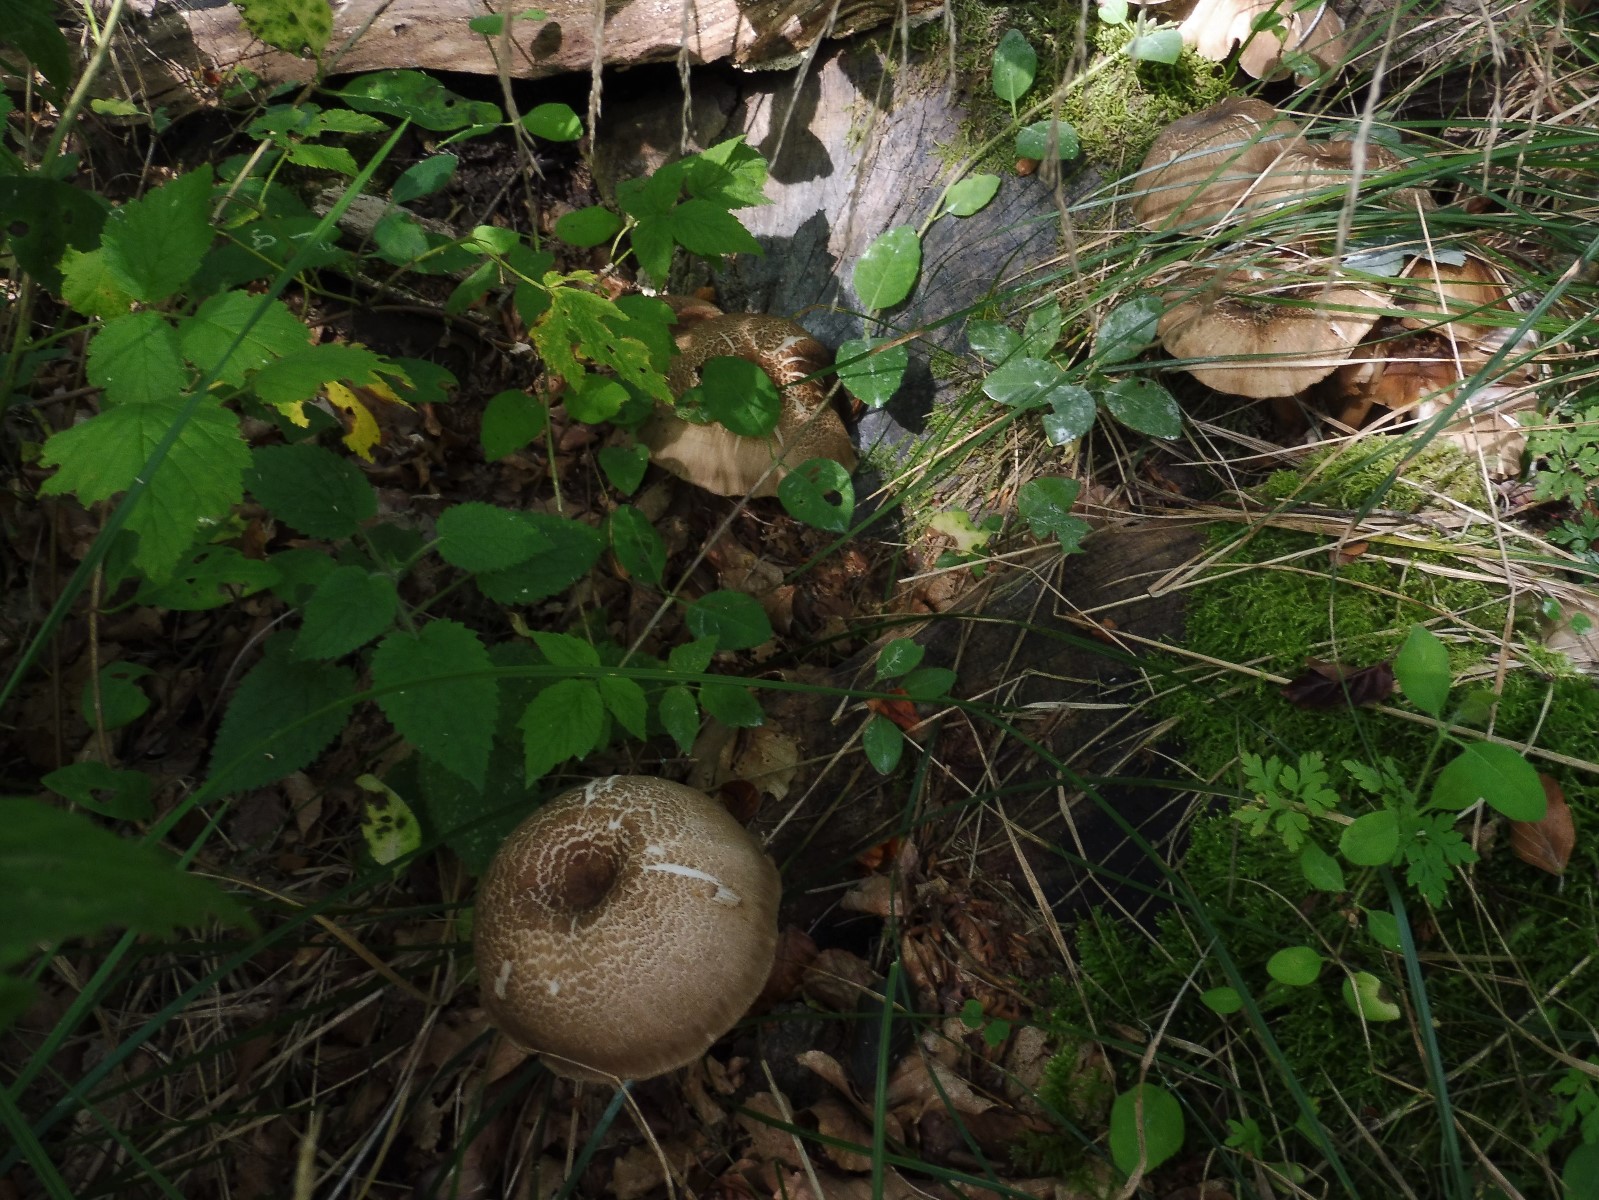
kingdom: Fungi
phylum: Basidiomycota
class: Agaricomycetes
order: Agaricales
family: Tricholomataceae
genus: Megacollybia
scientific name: Megacollybia platyphylla
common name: bredbladet væbnerhat
